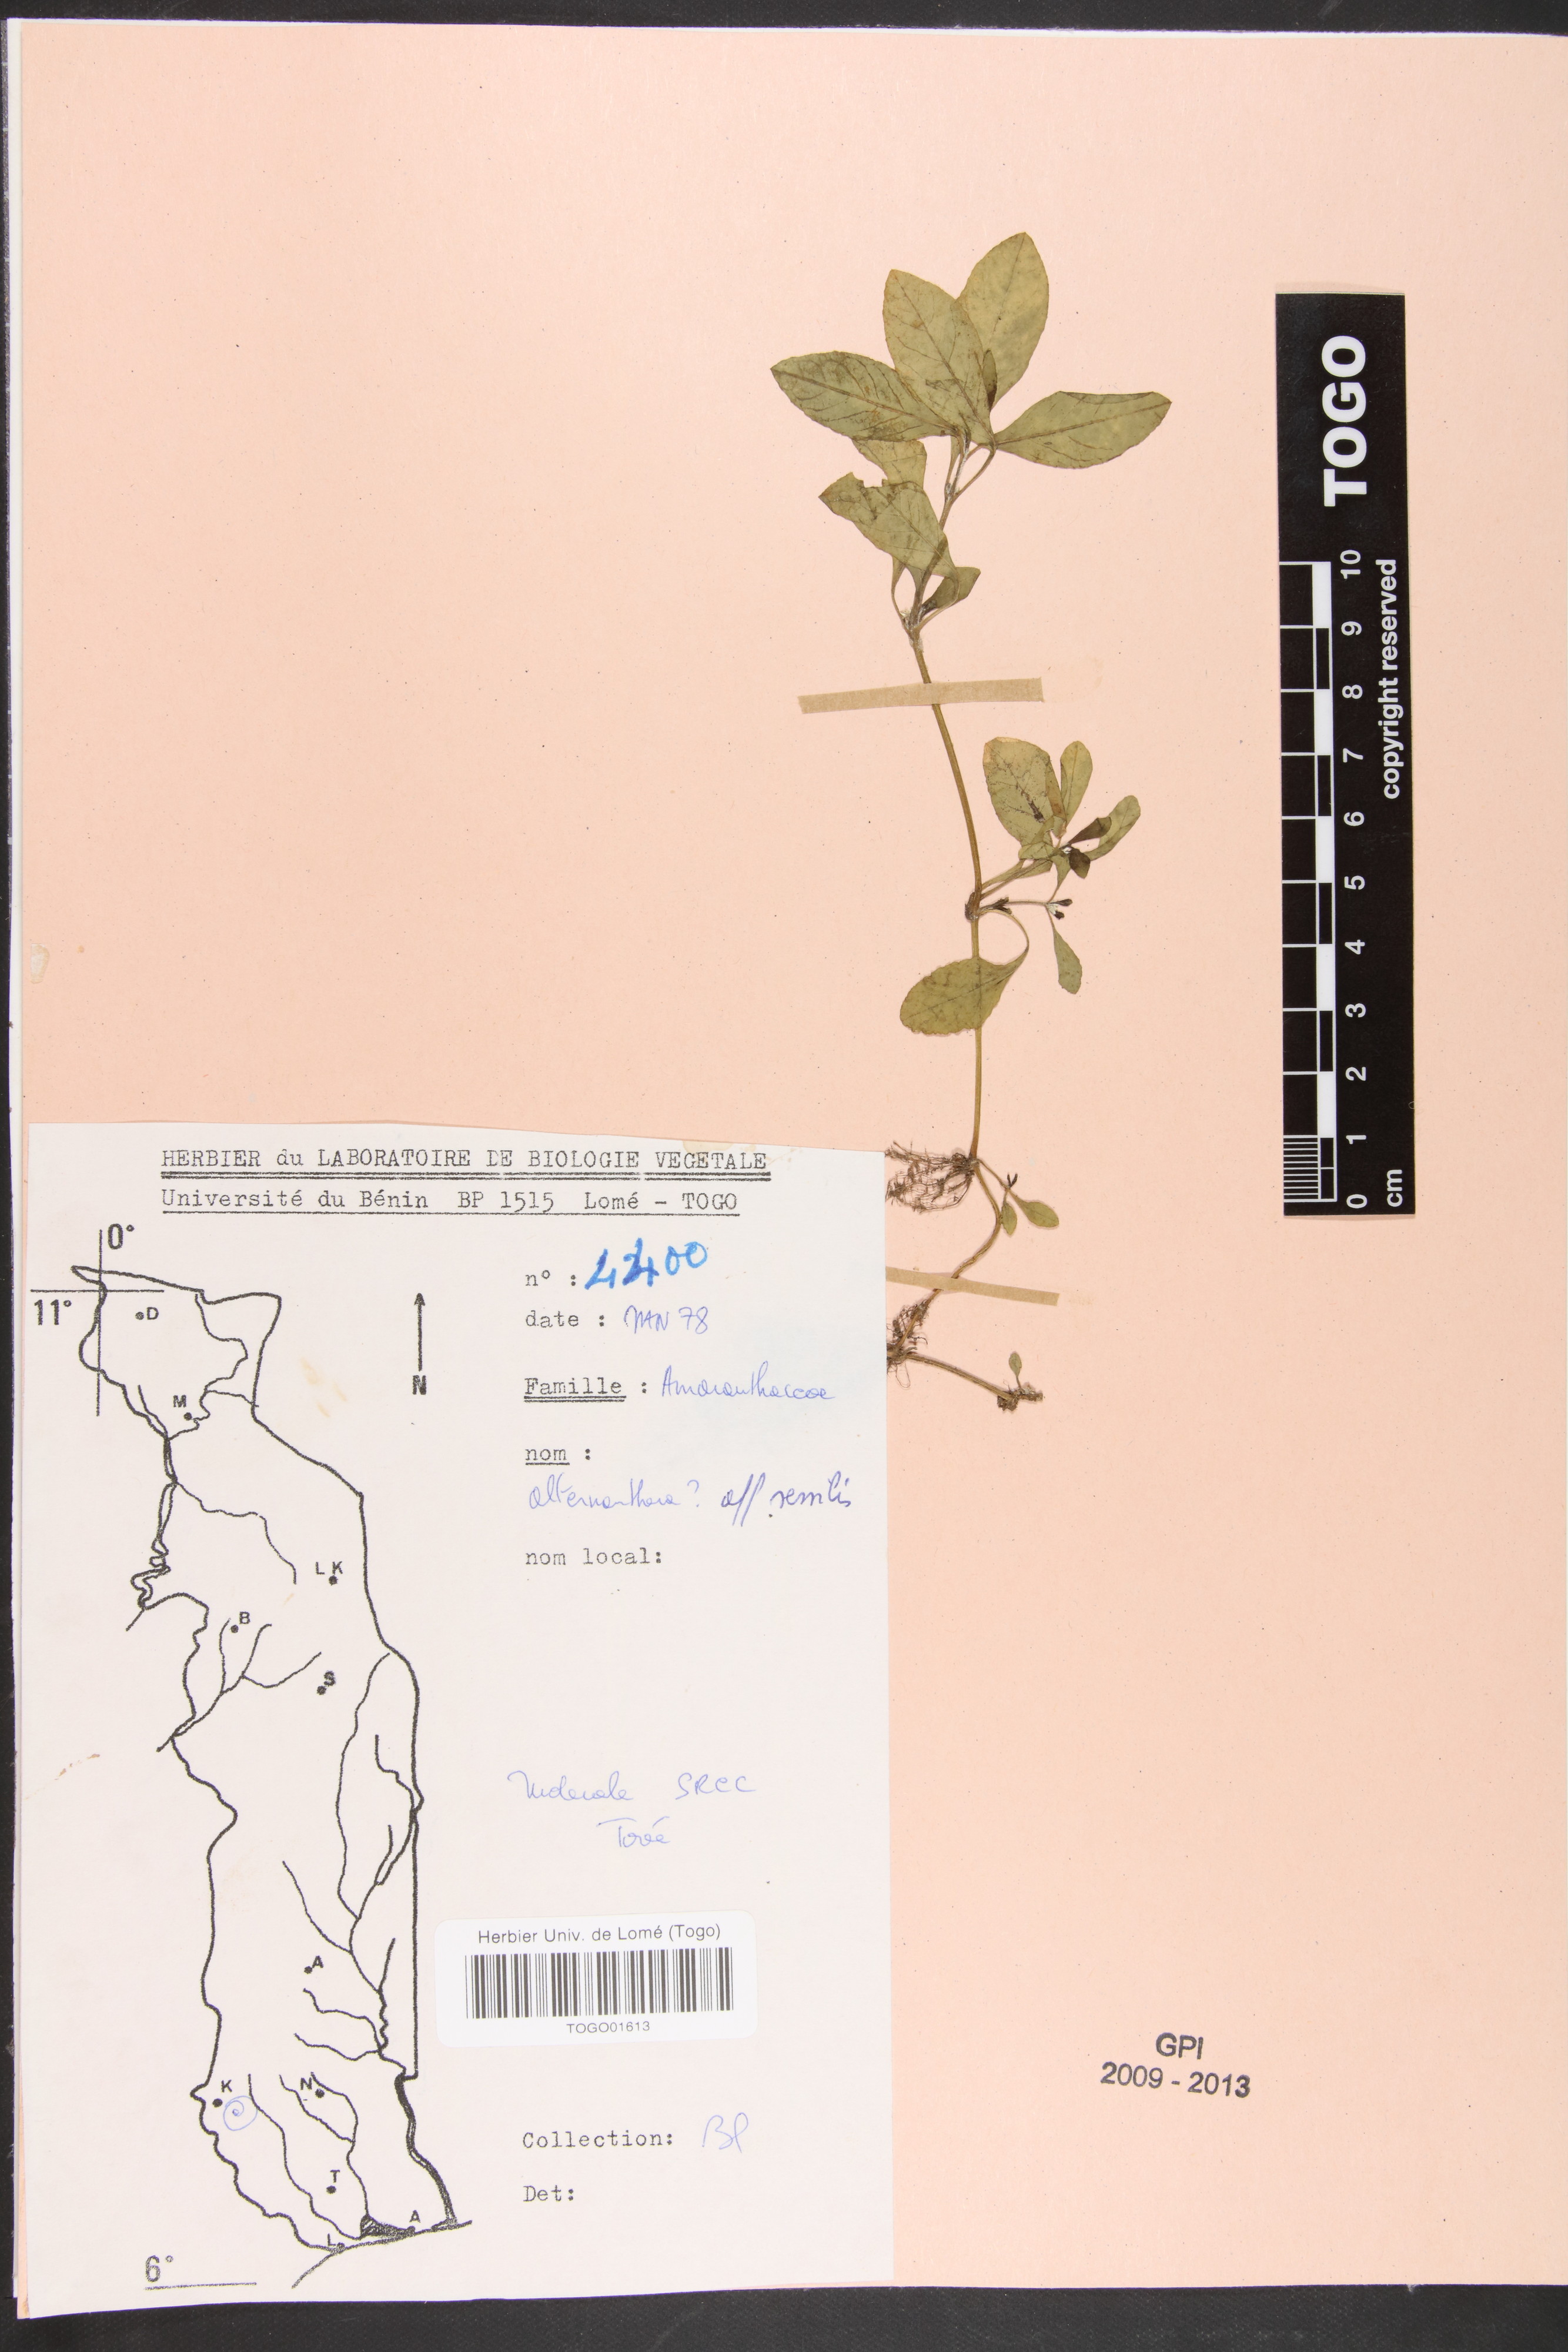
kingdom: Plantae
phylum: Tracheophyta
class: Magnoliopsida
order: Caryophyllales
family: Amaranthaceae
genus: Alternanthera
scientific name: Alternanthera sessilis
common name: Sessile joyweed
